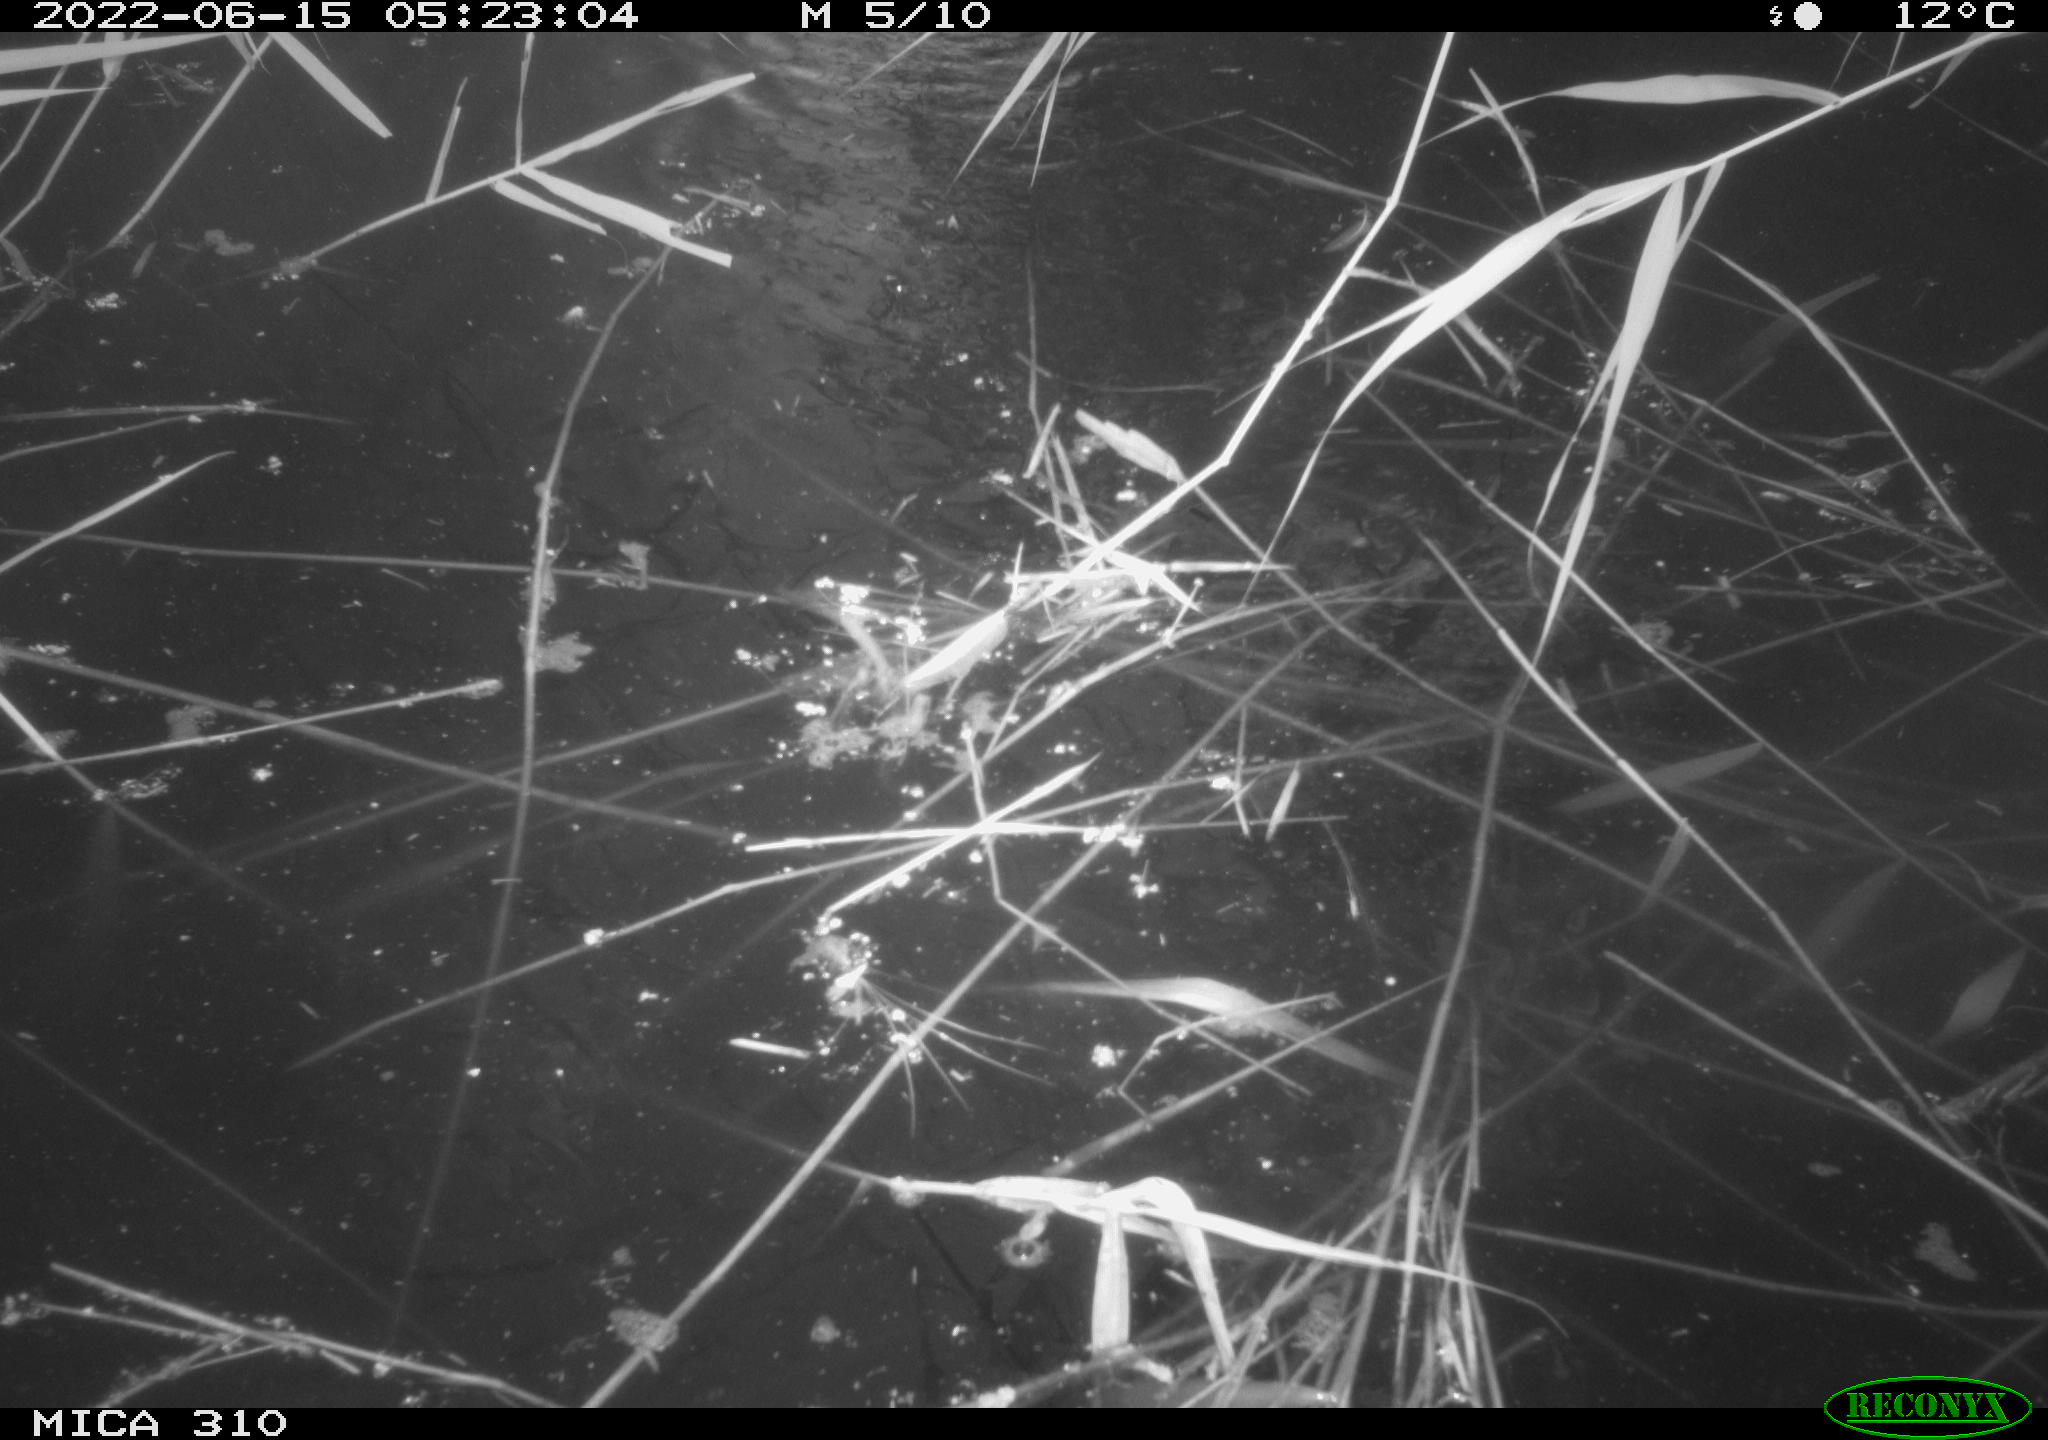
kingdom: Animalia
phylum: Chordata
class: Aves
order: Anseriformes
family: Anatidae
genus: Anas
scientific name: Anas platyrhynchos
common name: Mallard
